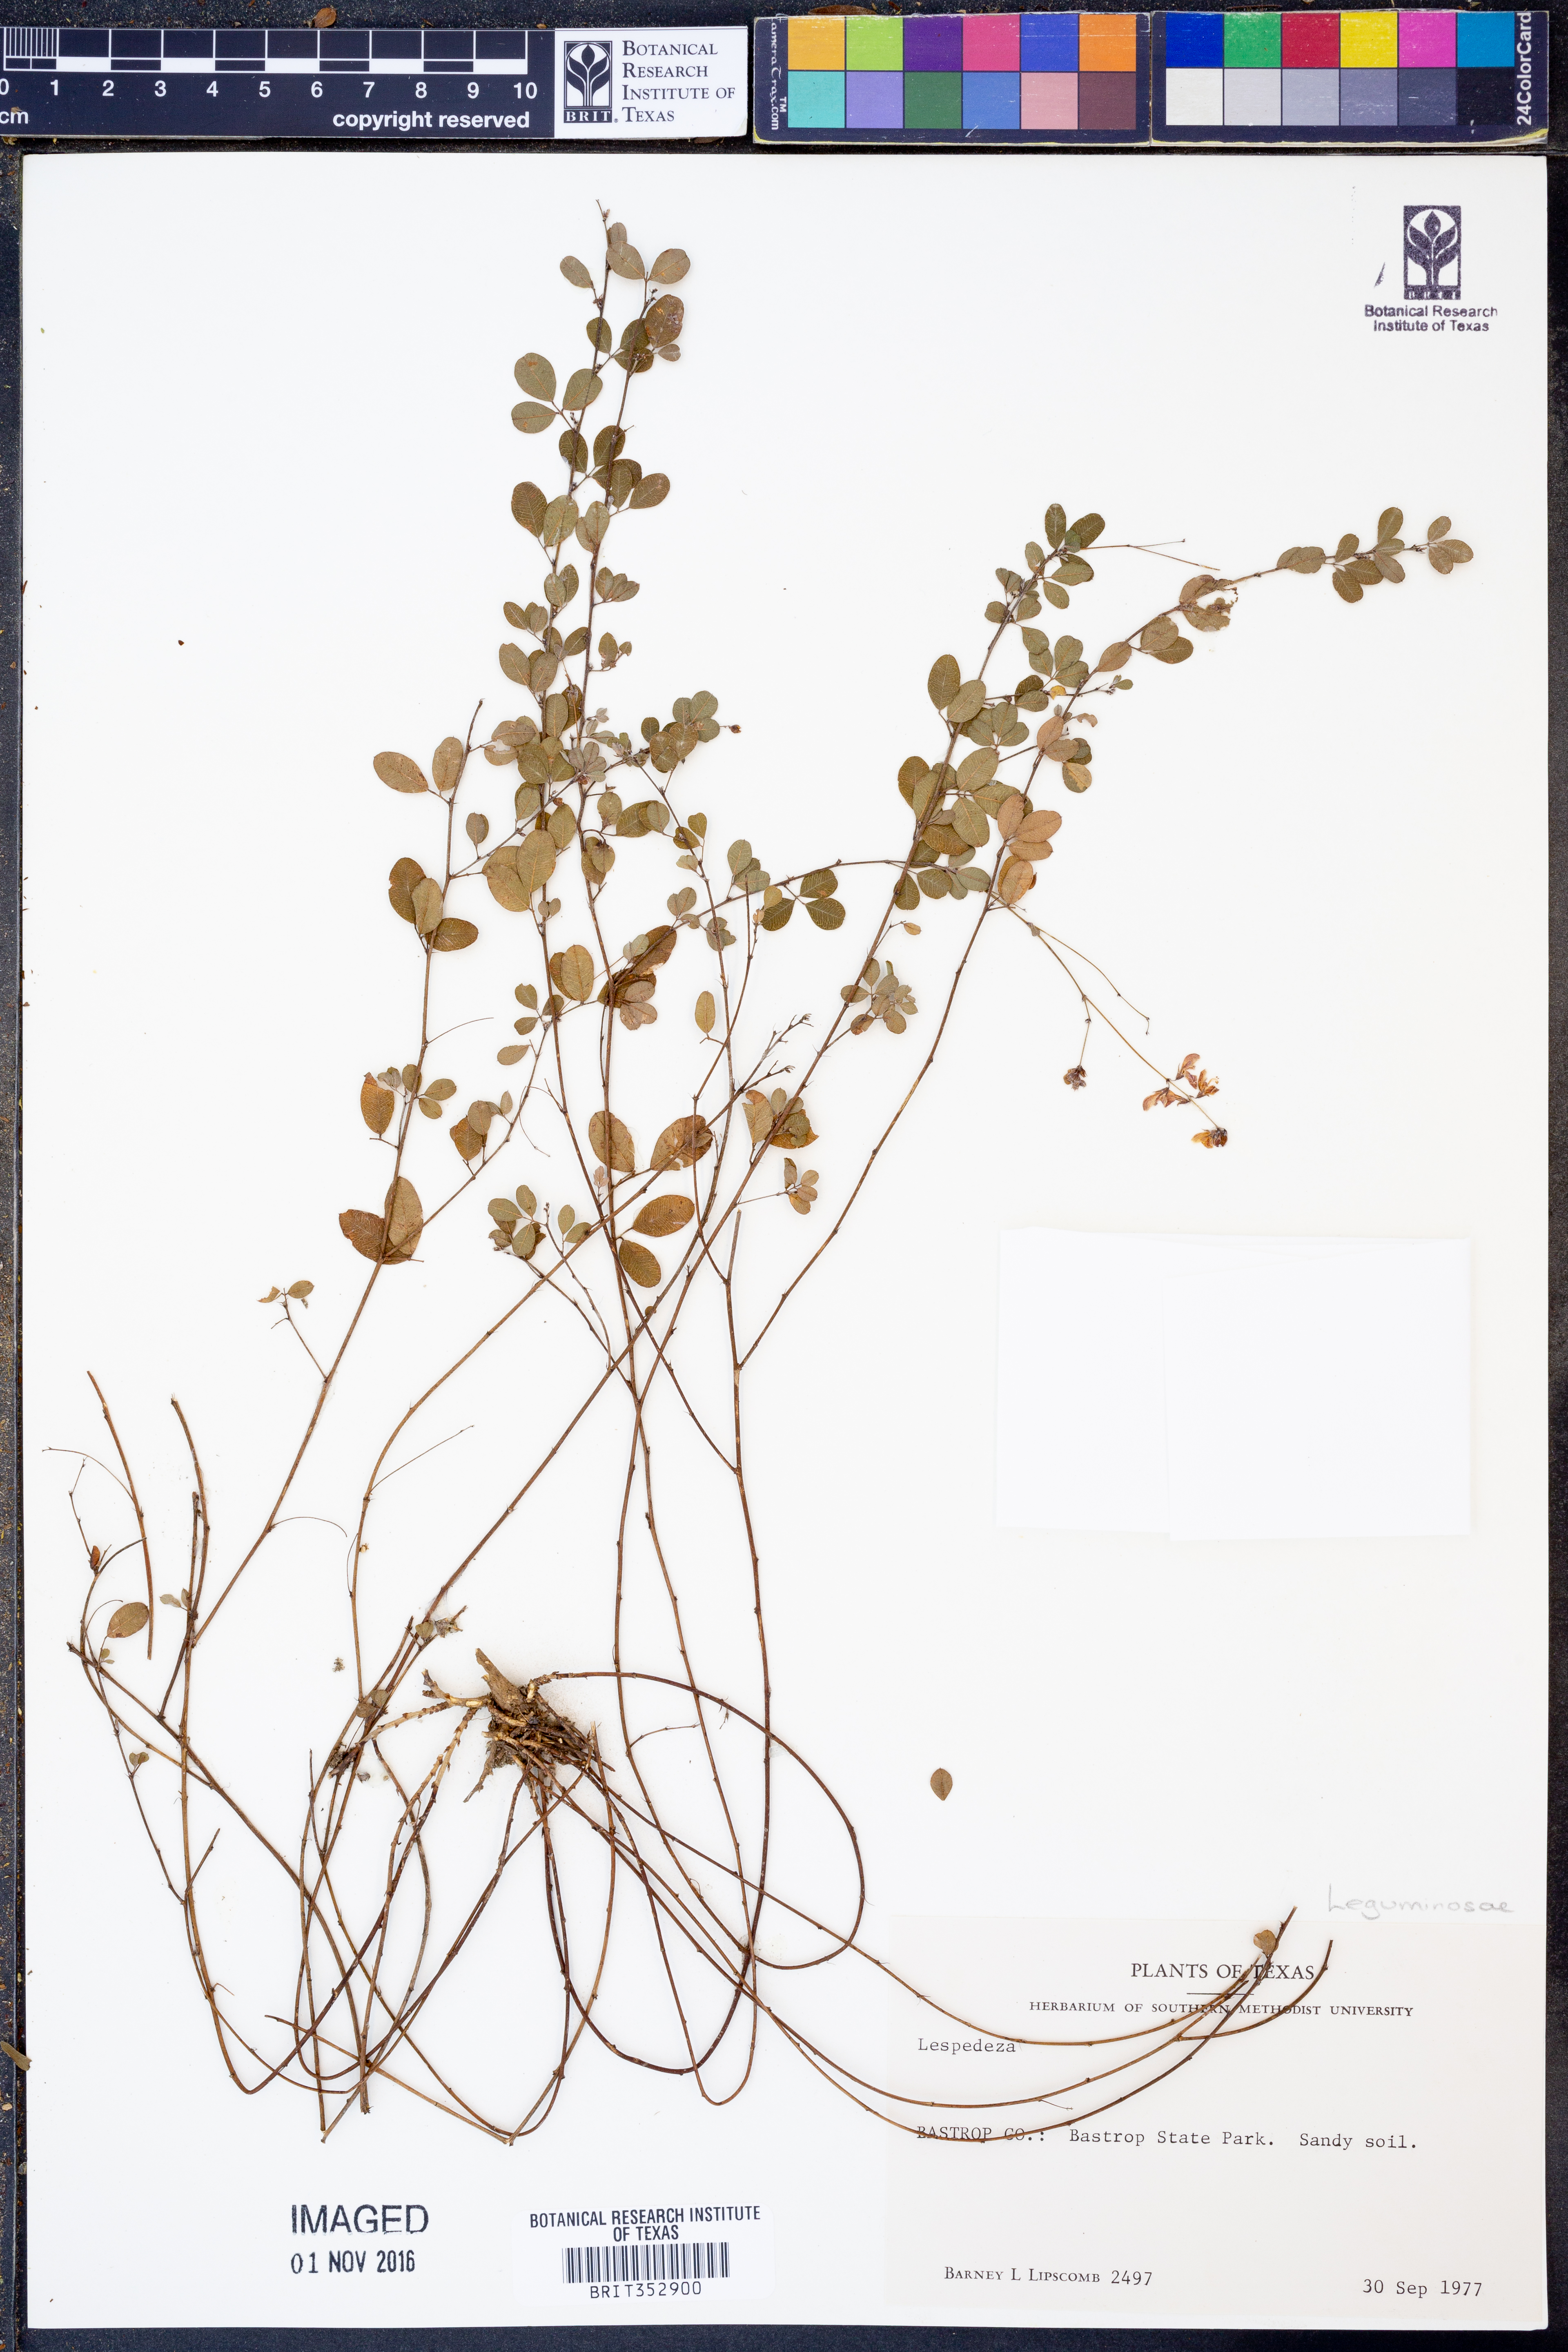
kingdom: Plantae
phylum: Tracheophyta
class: Magnoliopsida
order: Fabales
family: Fabaceae
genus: Lespedeza
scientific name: Lespedeza
